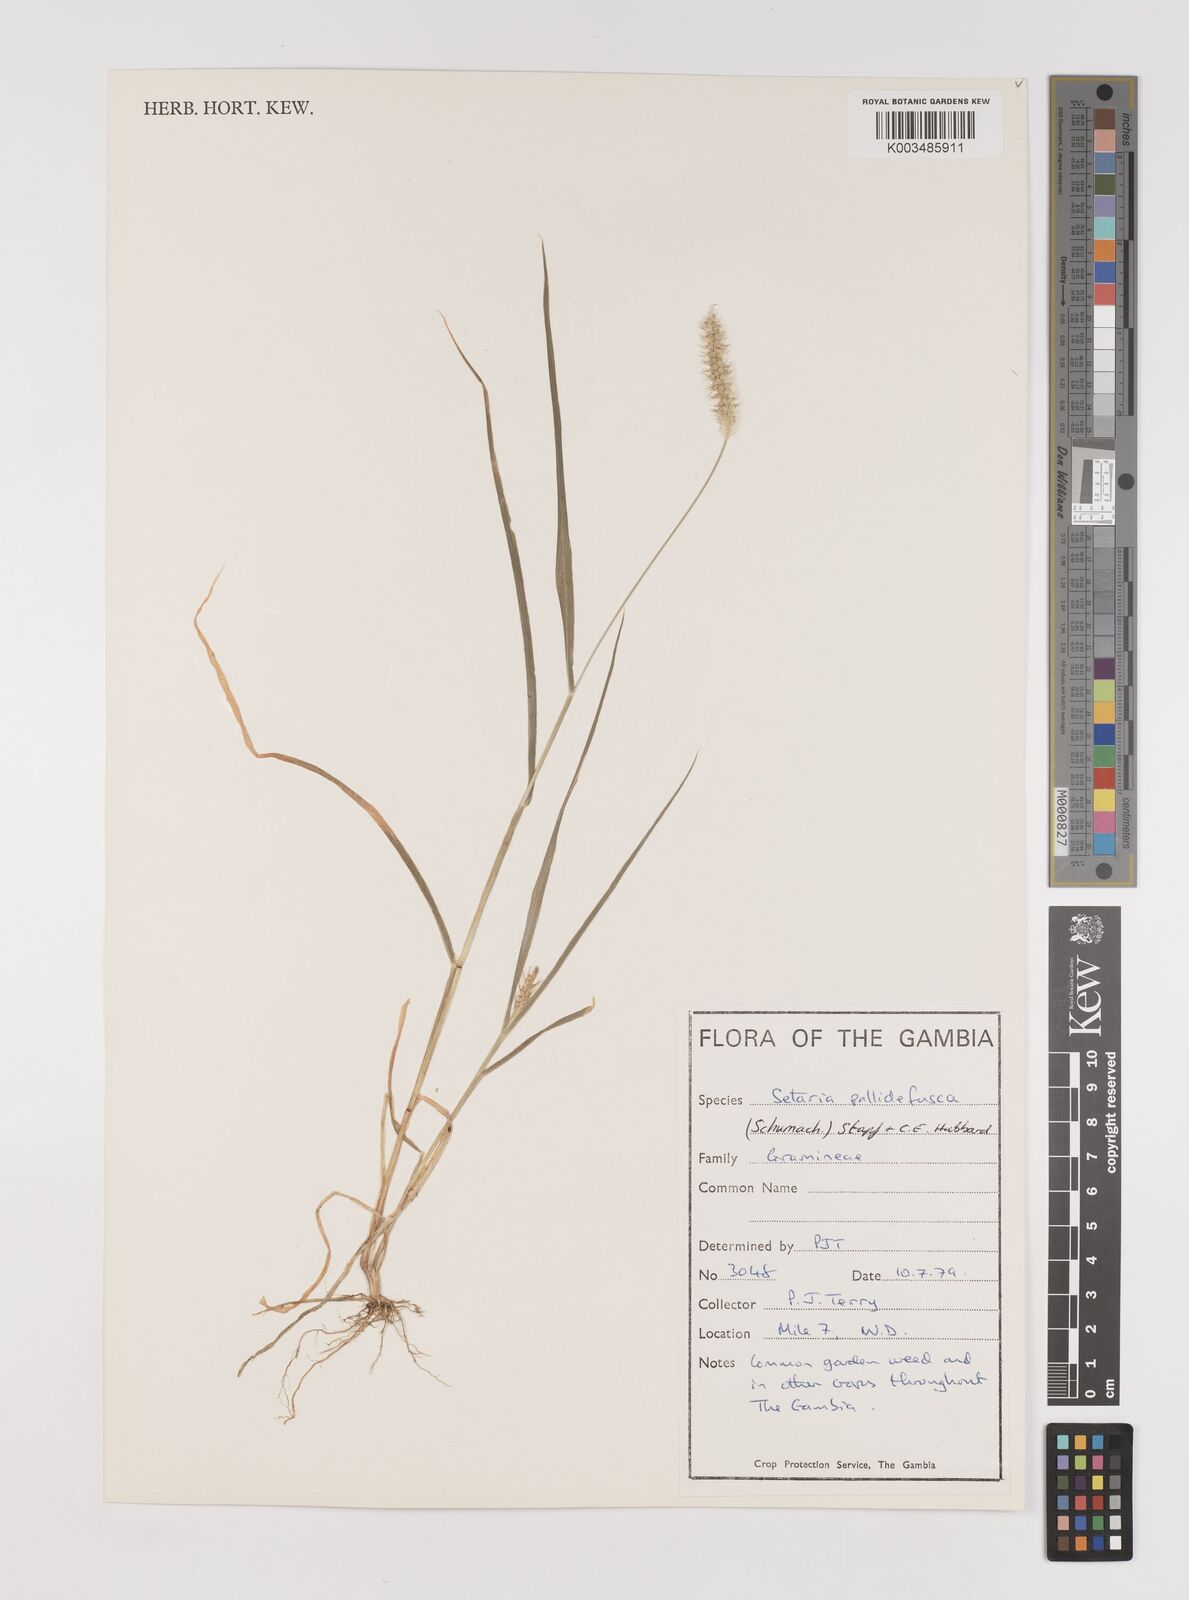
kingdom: Plantae
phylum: Tracheophyta
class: Liliopsida
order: Poales
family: Poaceae
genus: Setaria
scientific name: Setaria pumila
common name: Yellow bristle-grass
